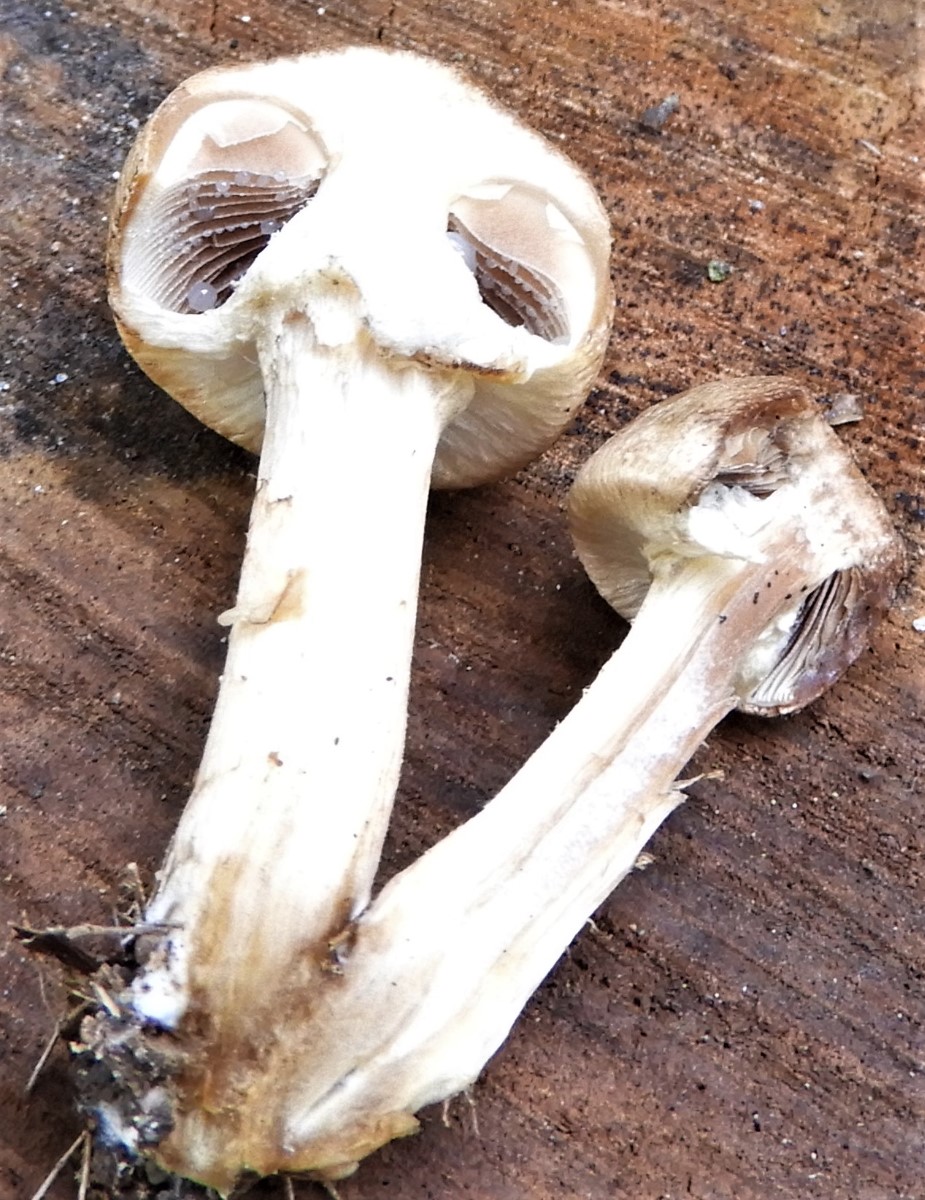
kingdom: Fungi
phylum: Basidiomycota
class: Agaricomycetes
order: Agaricales
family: Psathyrellaceae
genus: Lacrymaria
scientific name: Lacrymaria lacrymabunda
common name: grædende mørkhat
